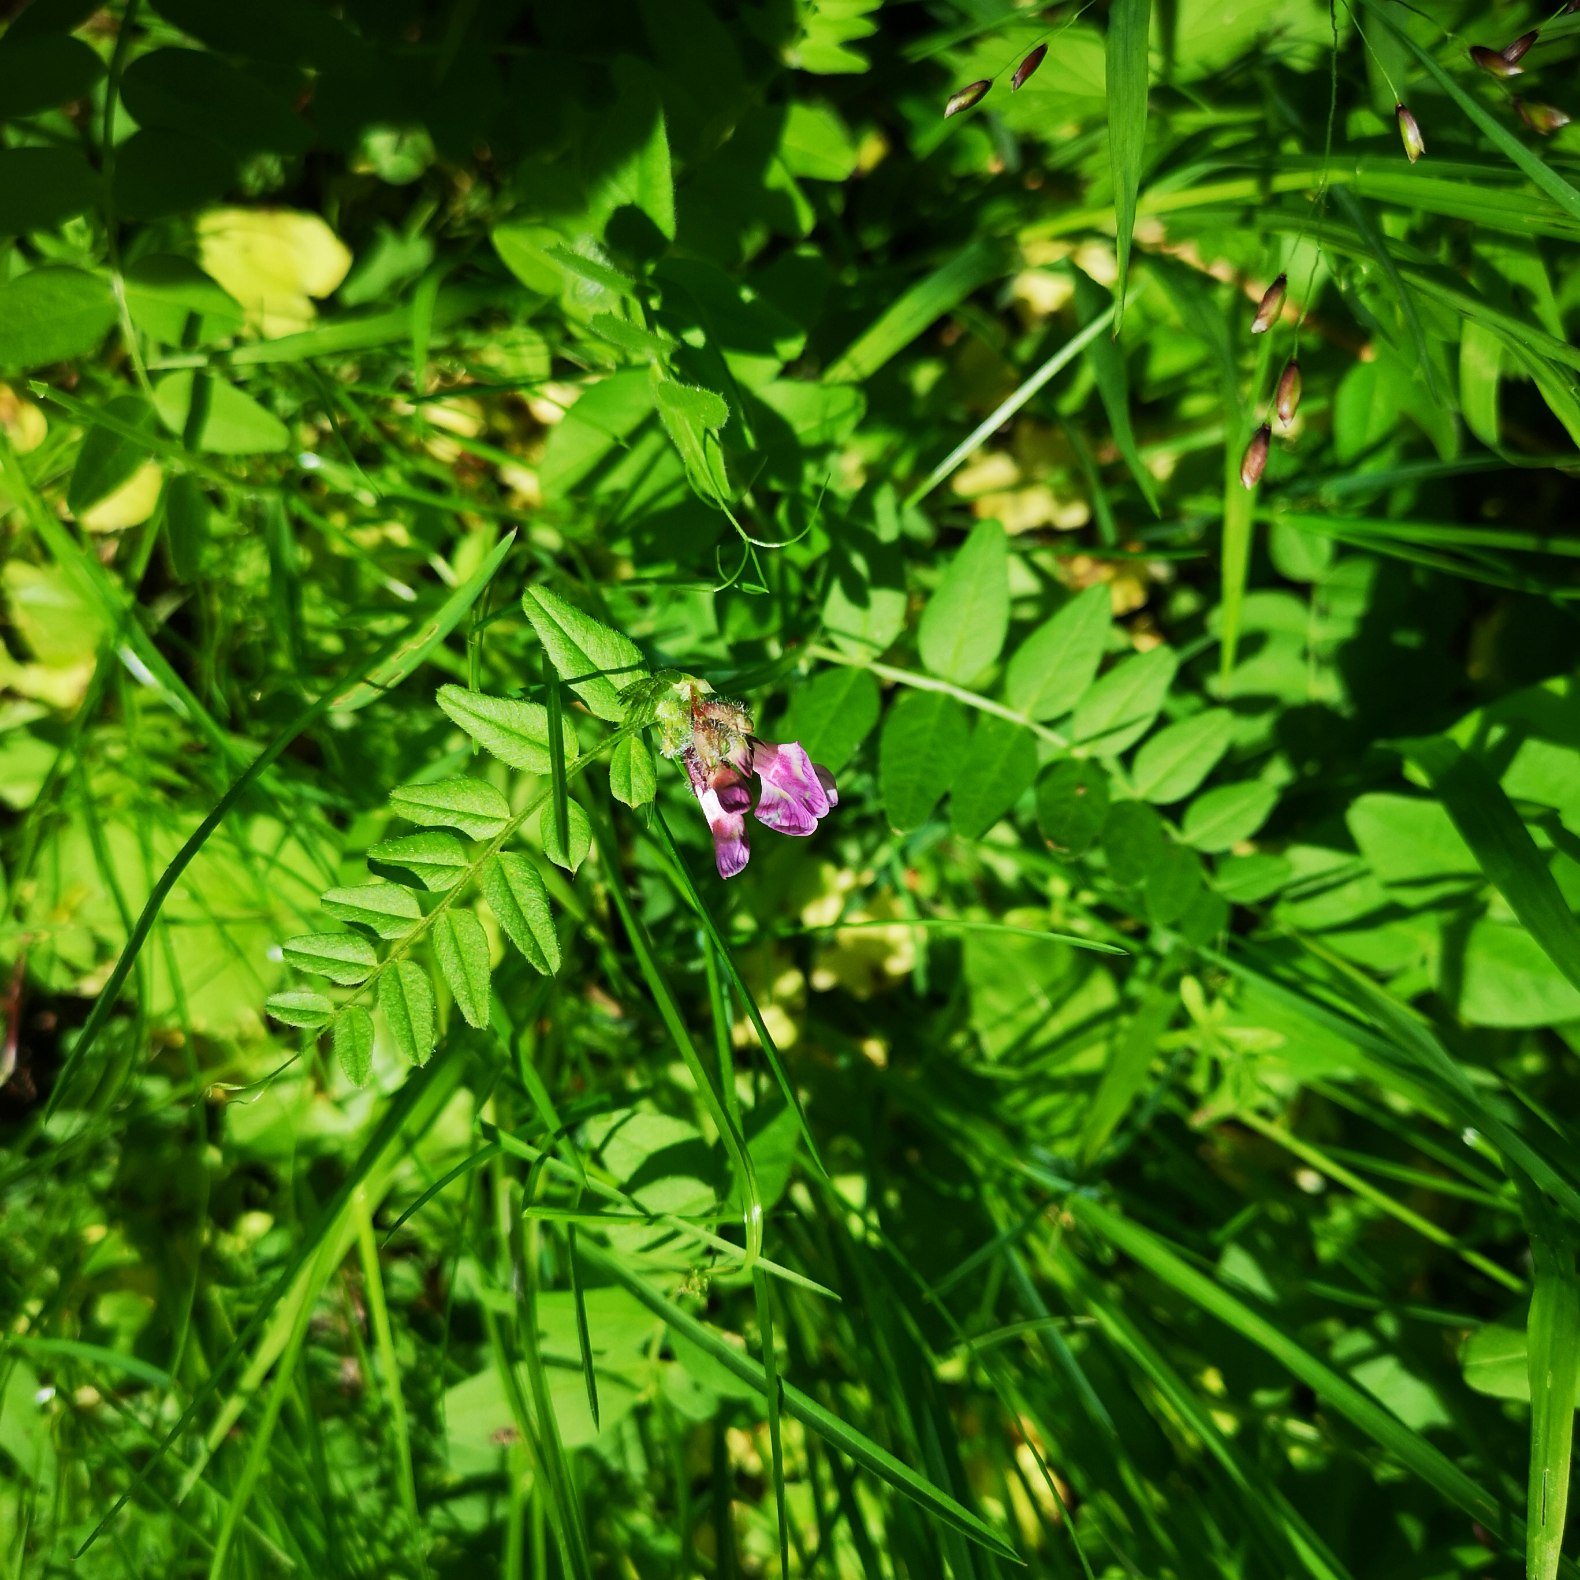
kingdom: Plantae
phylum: Tracheophyta
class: Magnoliopsida
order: Fabales
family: Fabaceae
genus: Vicia
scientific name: Vicia sepium
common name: Gærde-vikke
